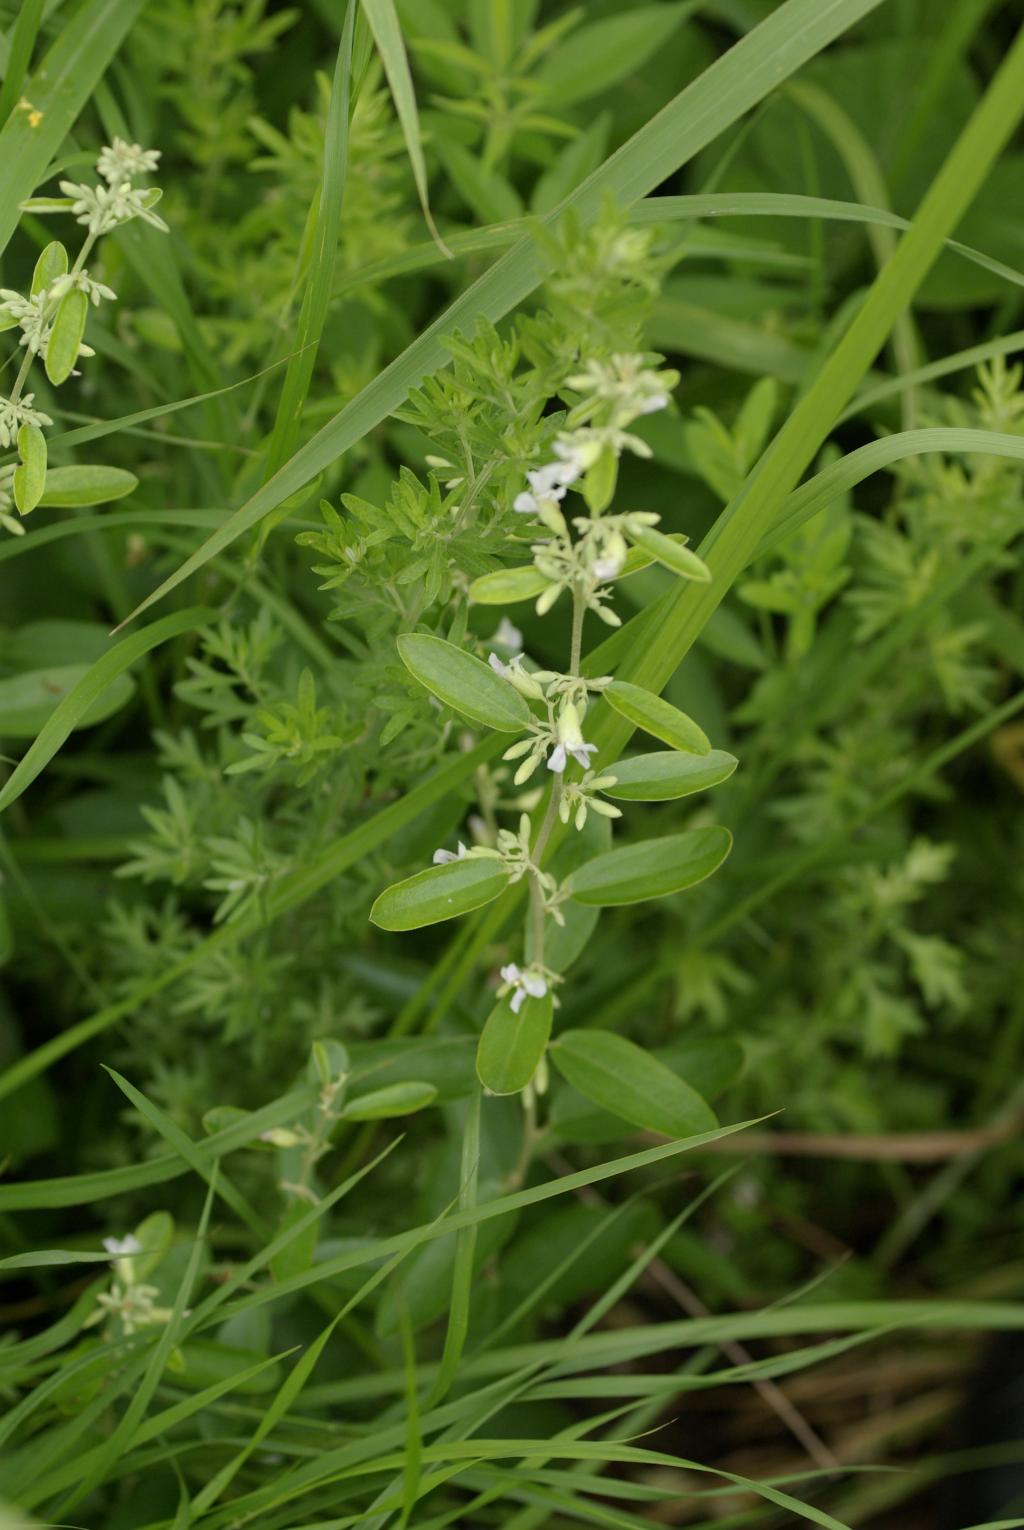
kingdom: Plantae
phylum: Tracheophyta
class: Magnoliopsida
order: Malvales
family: Malvaceae
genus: Helicteres
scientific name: Helicteres augustifolia
